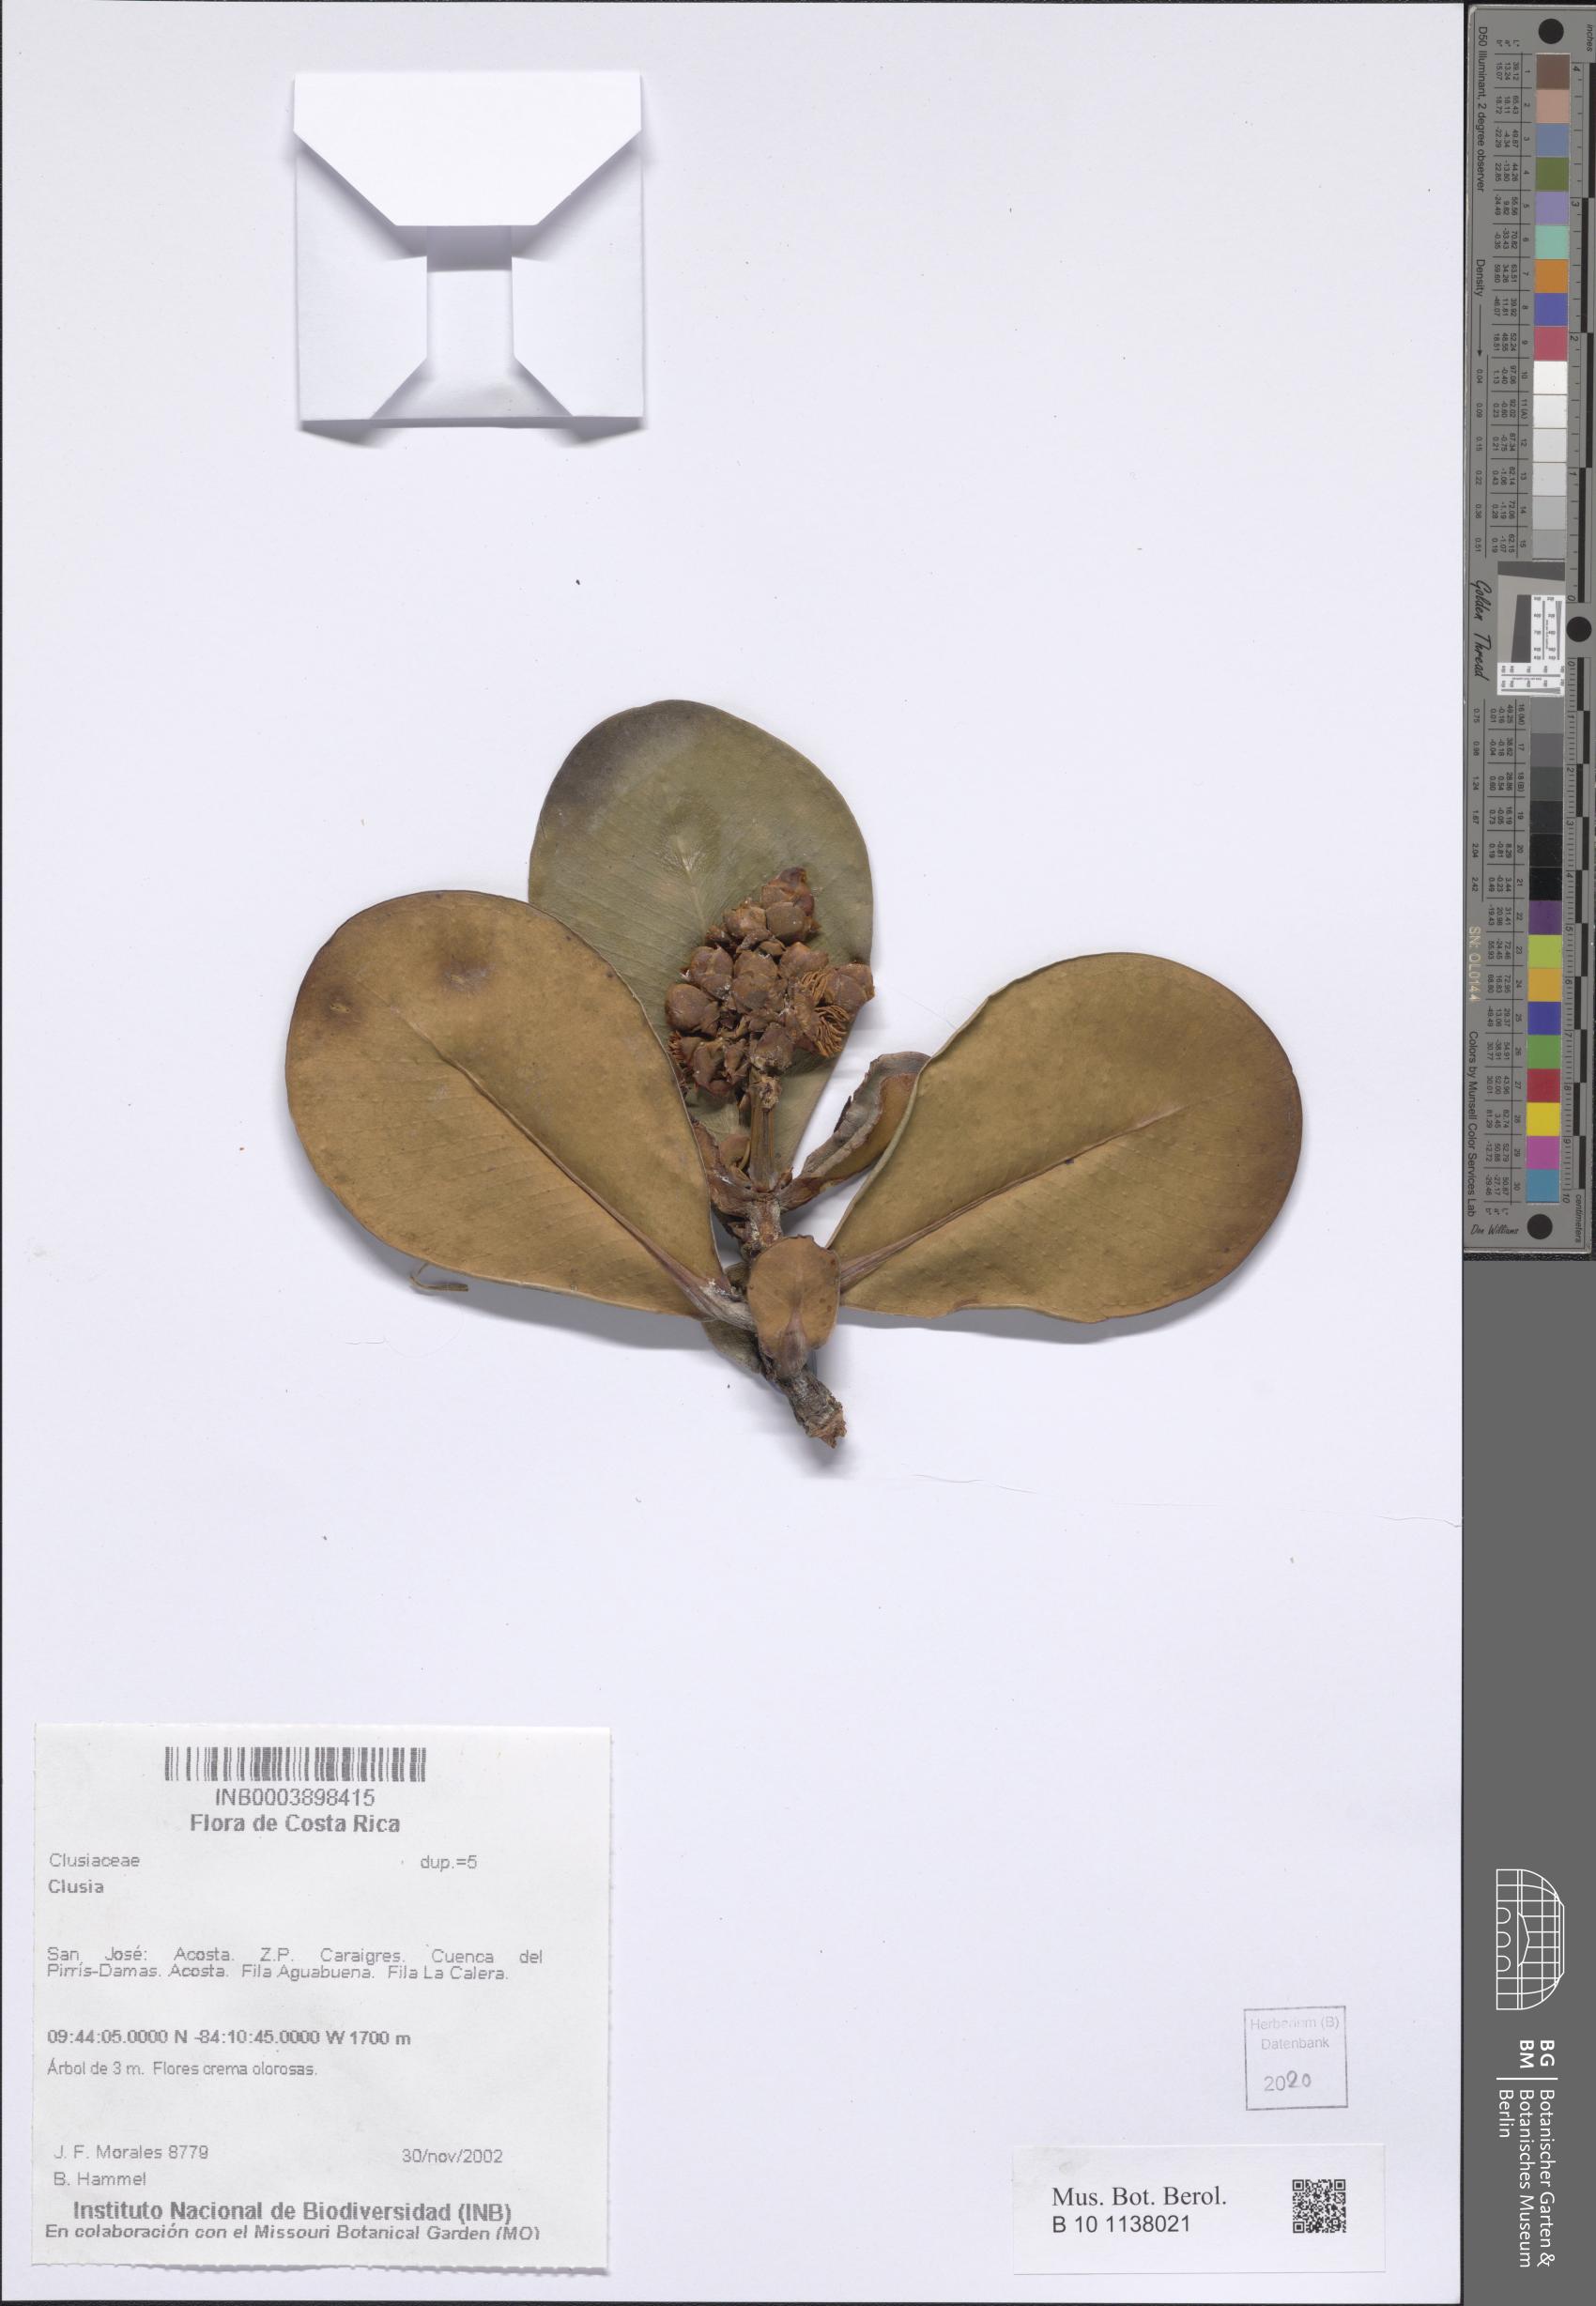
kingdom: Plantae
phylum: Tracheophyta
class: Magnoliopsida
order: Malpighiales
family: Clusiaceae
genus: Clusia
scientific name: Clusia
